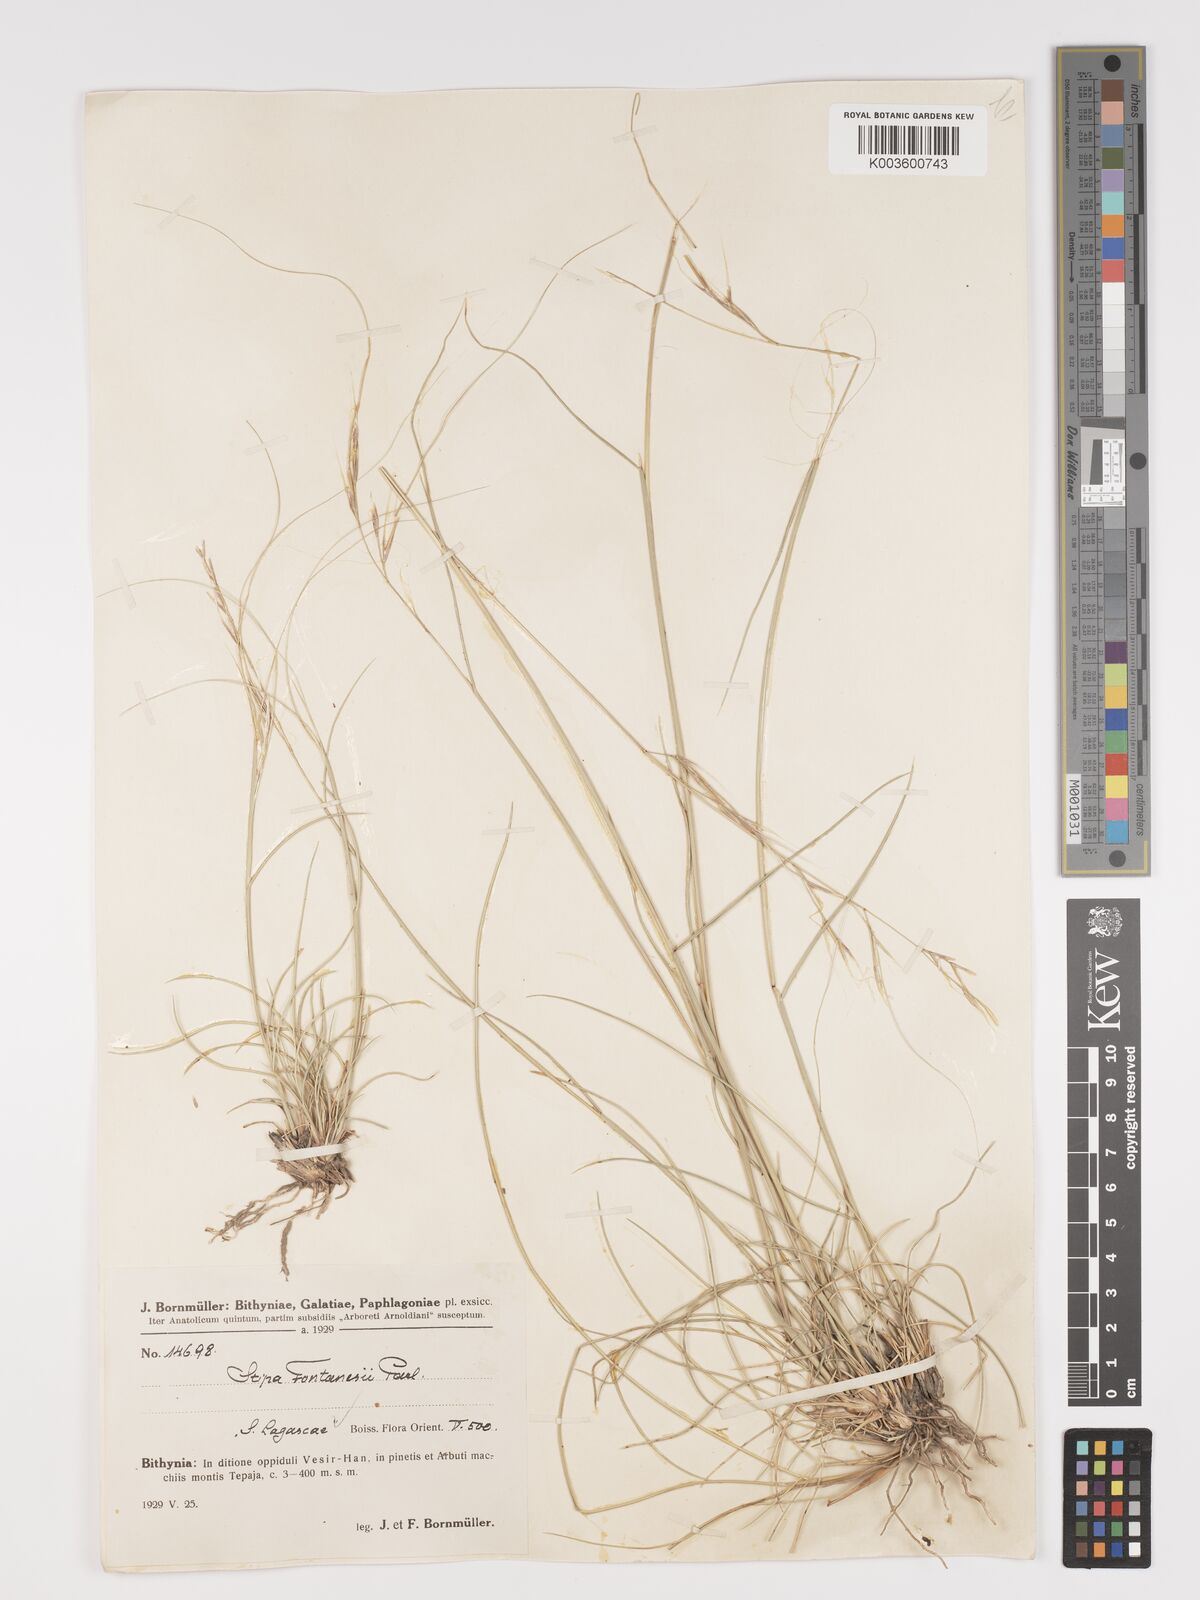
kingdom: Plantae
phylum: Tracheophyta
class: Liliopsida
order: Poales
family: Poaceae
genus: Stipa
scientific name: Stipa lagascae
